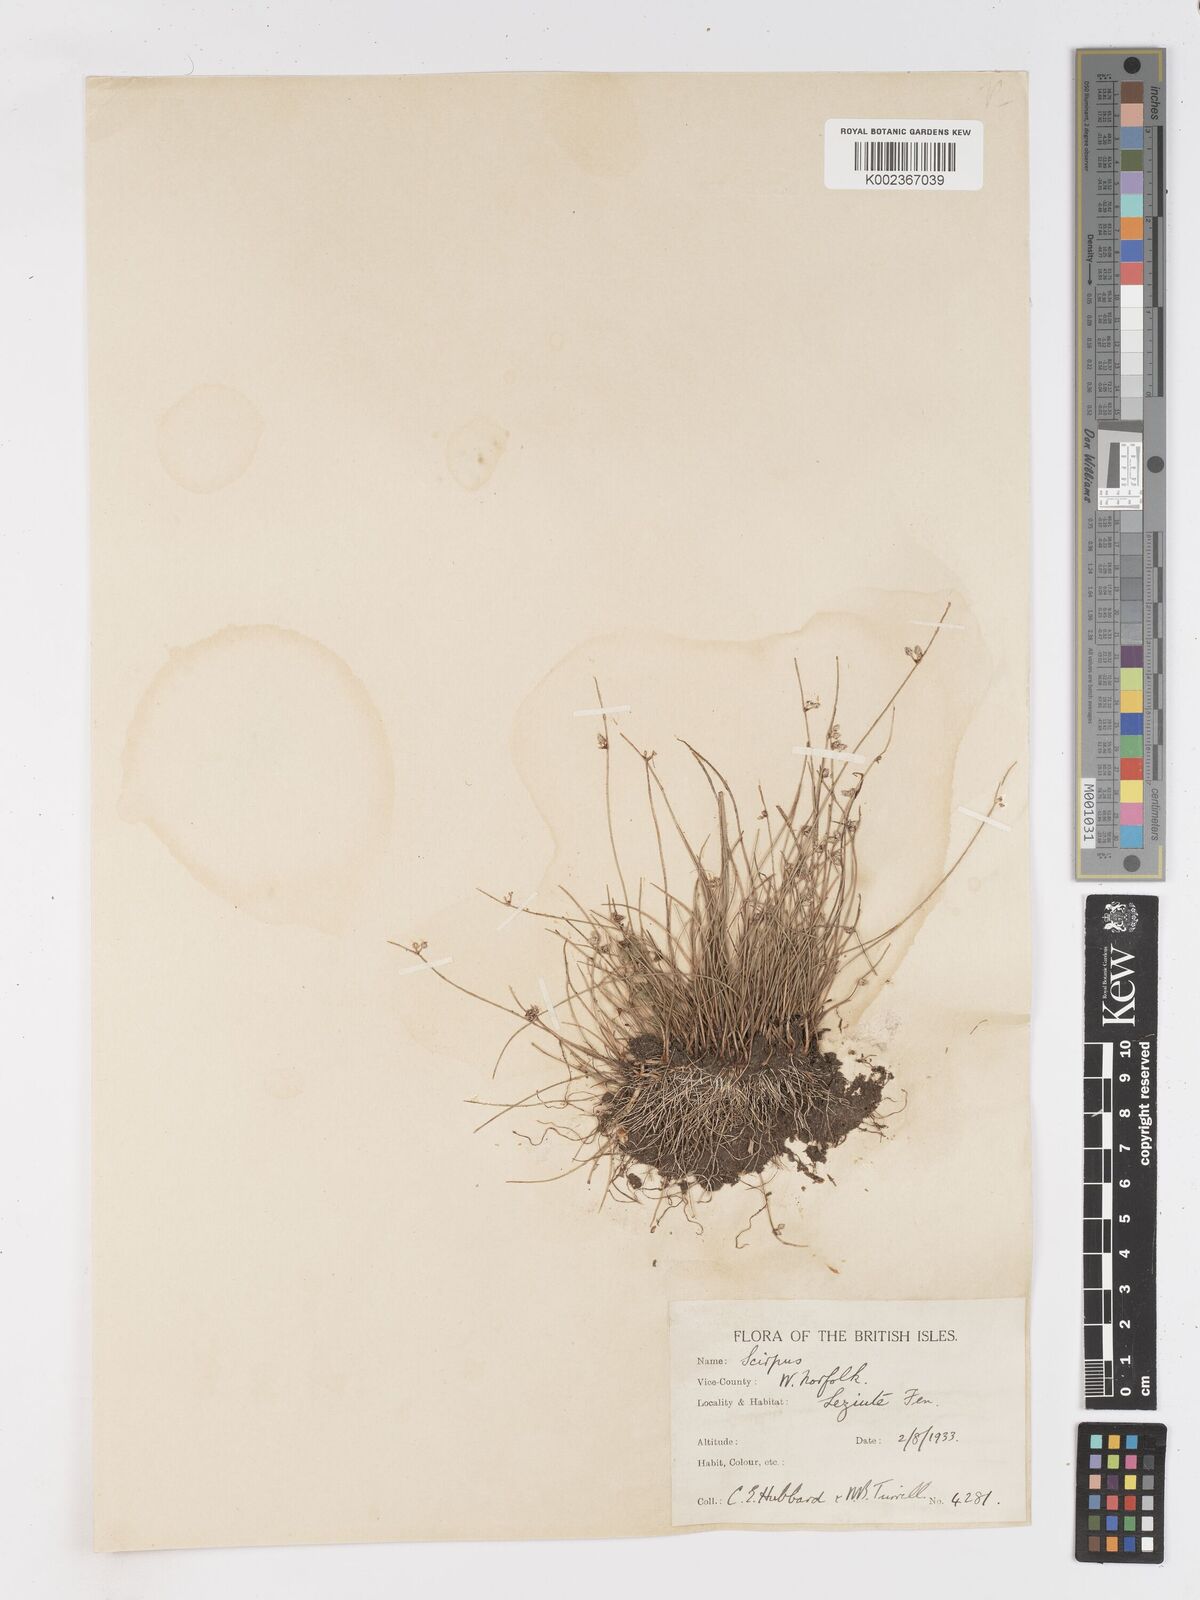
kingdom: Plantae
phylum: Tracheophyta
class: Liliopsida
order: Poales
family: Cyperaceae
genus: Isolepis
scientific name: Isolepis setacea
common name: Bristle club-rush
